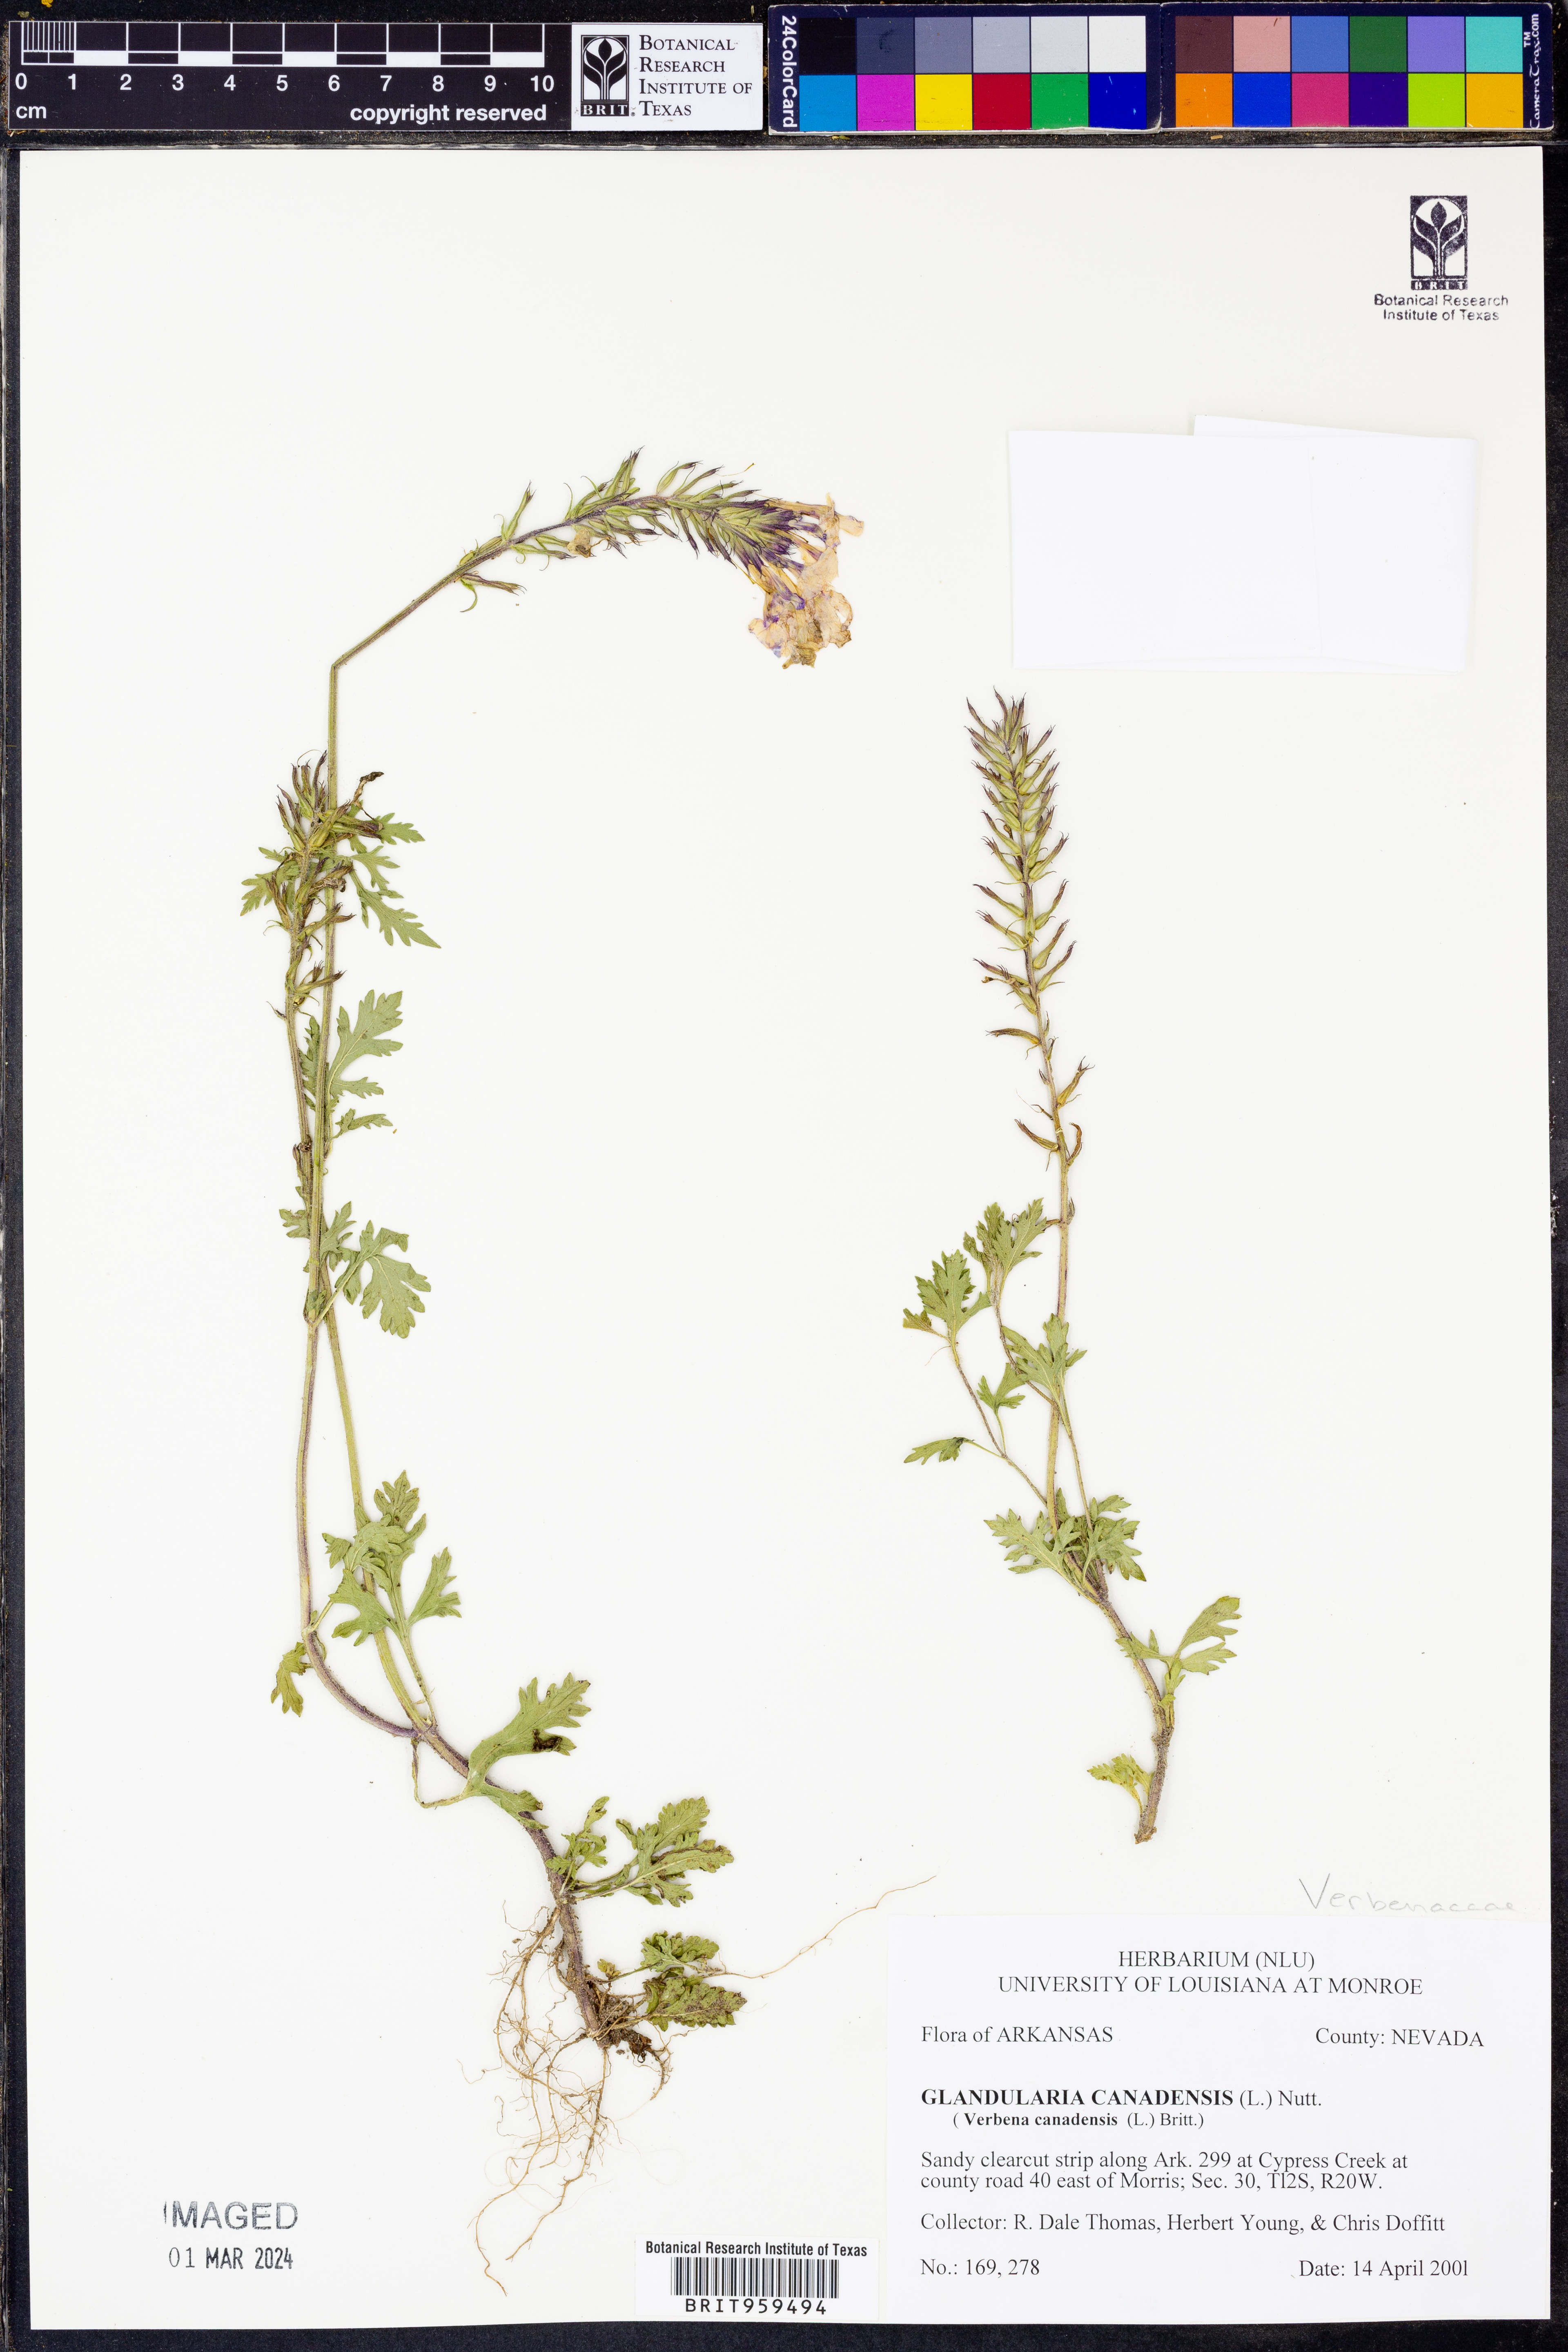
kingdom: Plantae
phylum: Tracheophyta
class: Magnoliopsida
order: Lamiales
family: Verbenaceae
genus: Verbena
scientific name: Verbena canadensis
